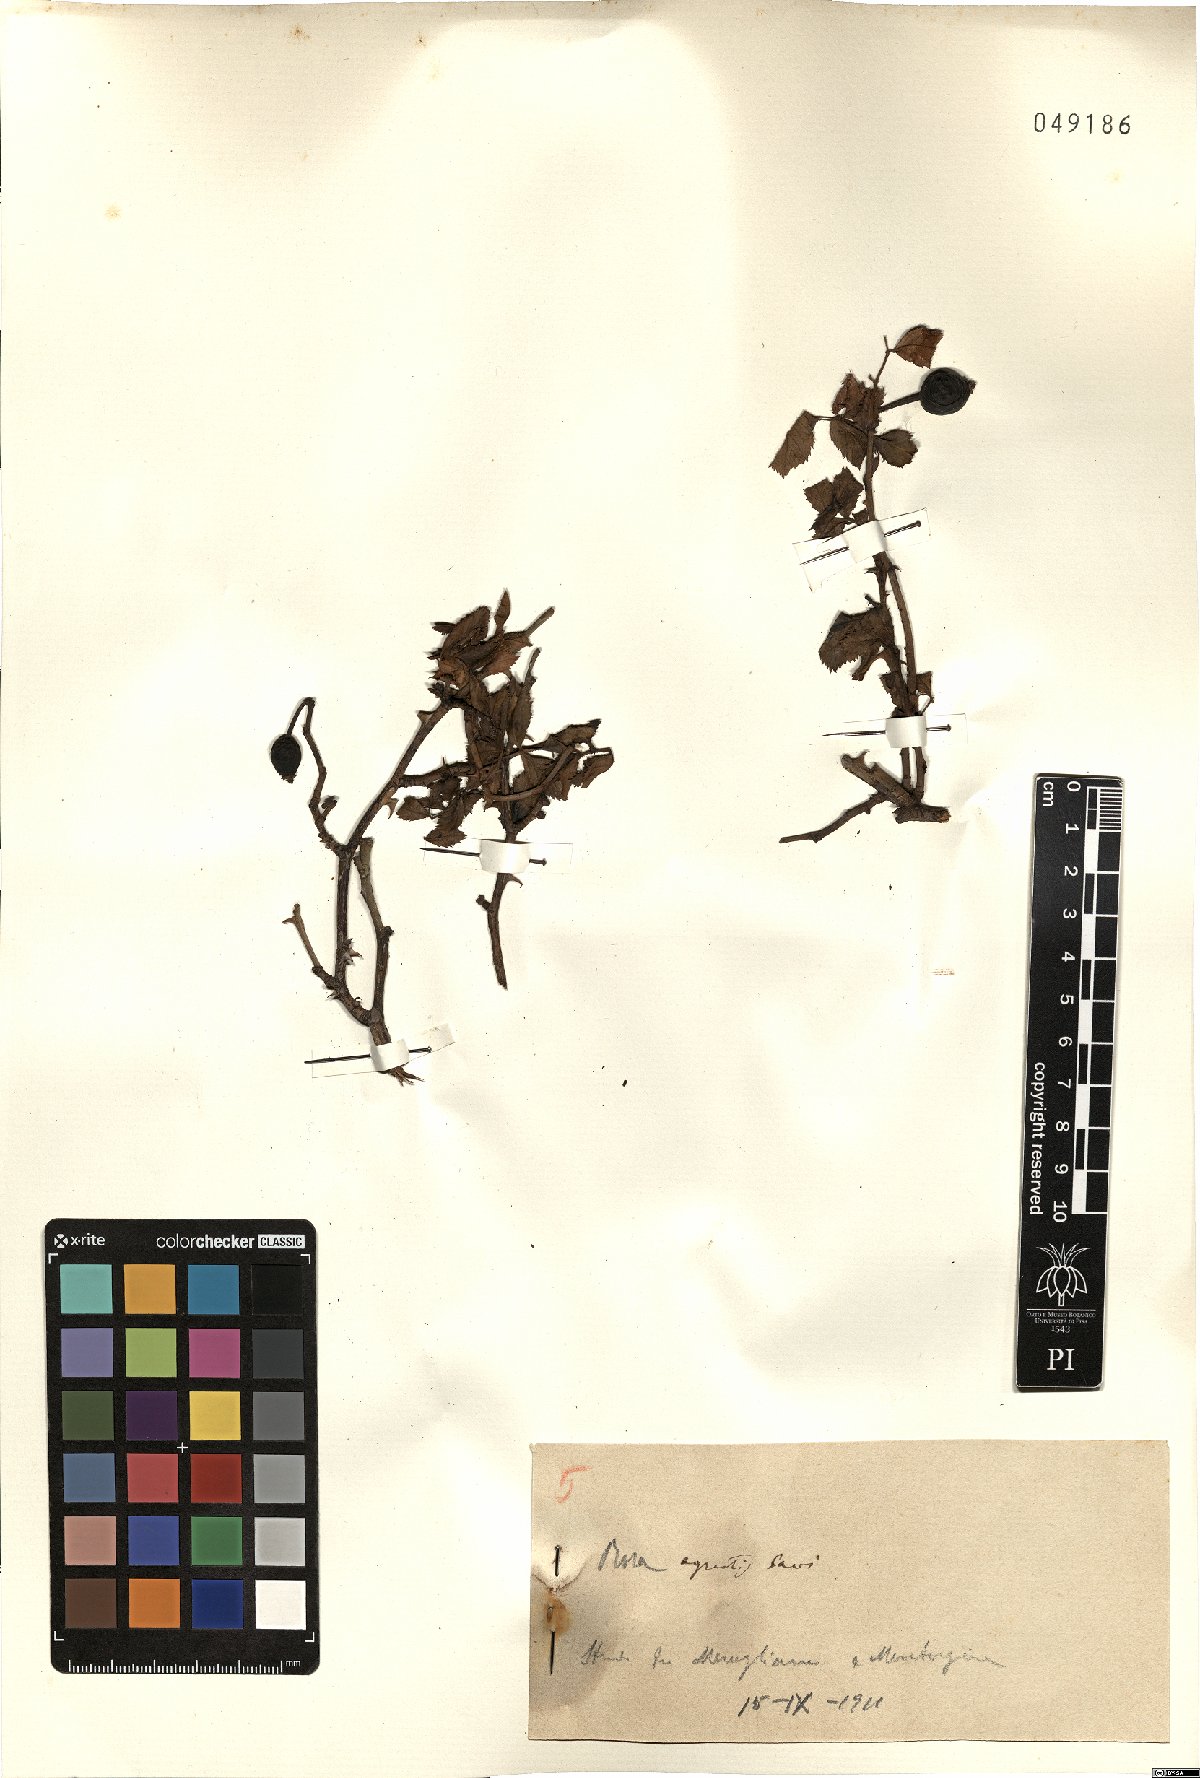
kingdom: Plantae
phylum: Tracheophyta
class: Magnoliopsida
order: Rosales
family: Rosaceae
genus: Rosa
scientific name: Rosa agrestis
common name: Fieldbriar
